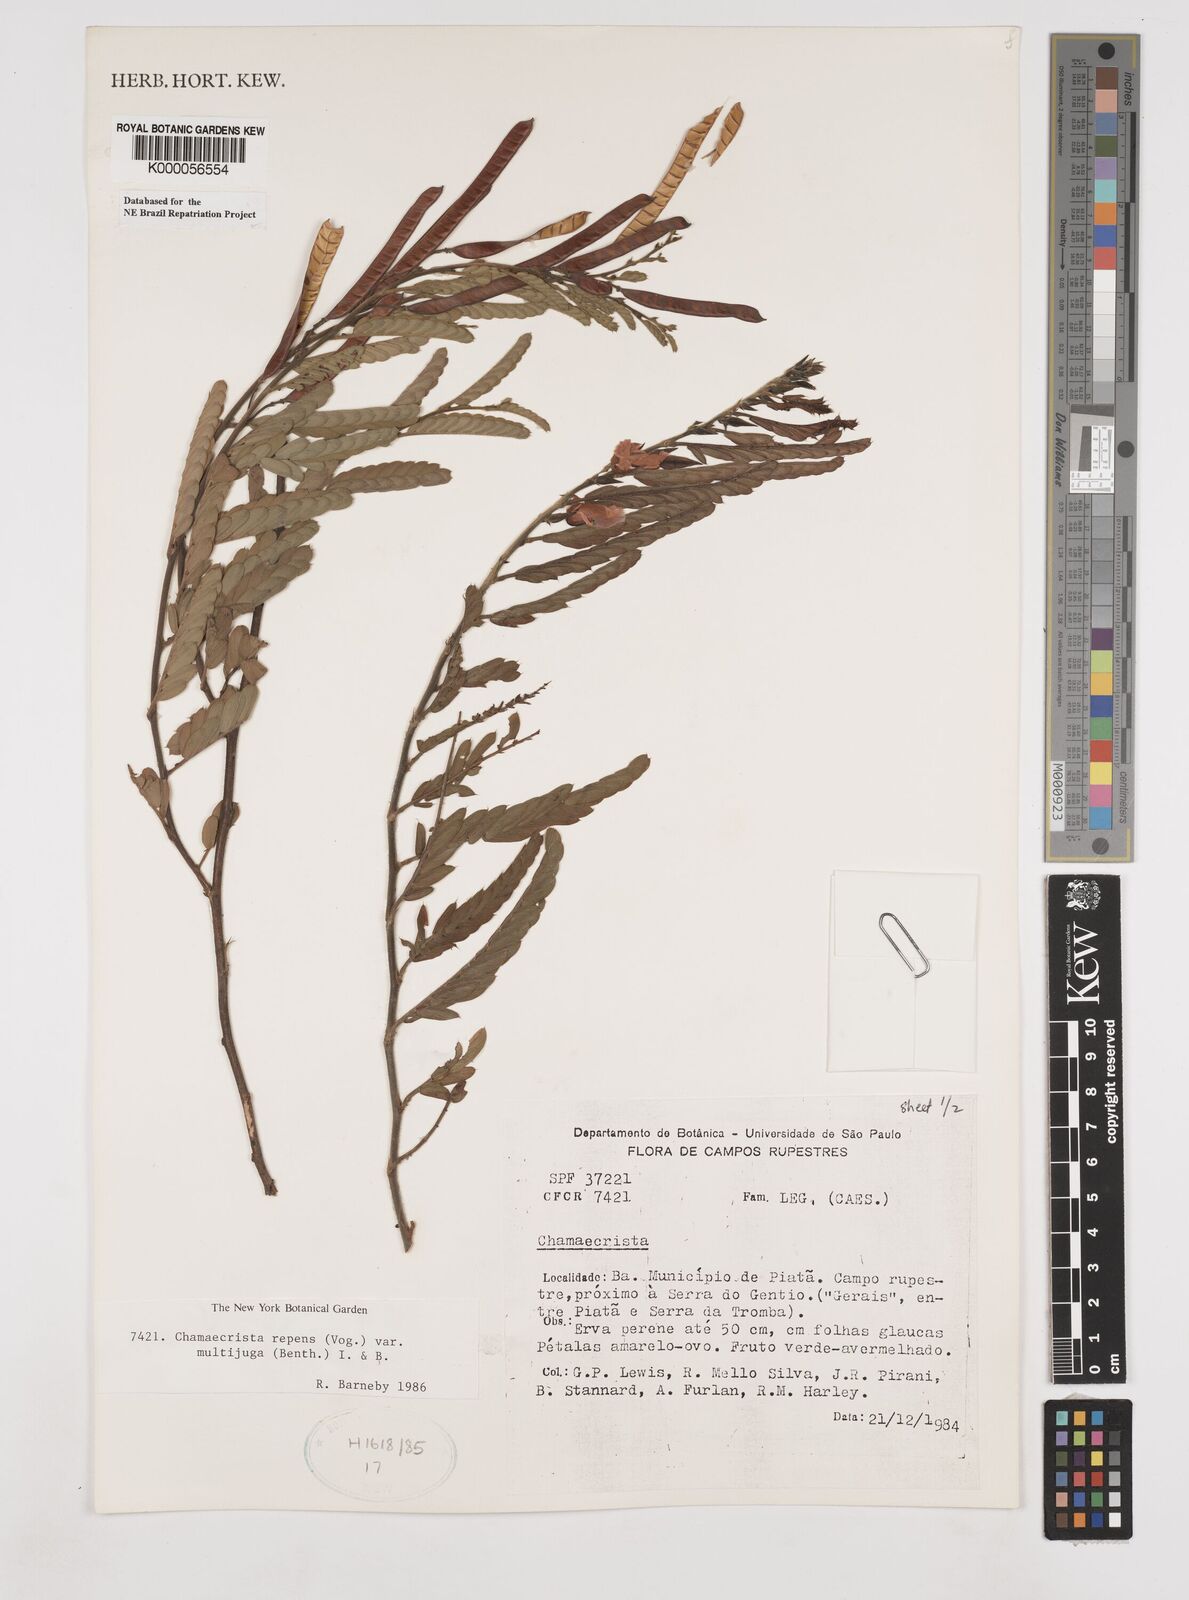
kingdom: Plantae
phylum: Tracheophyta
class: Magnoliopsida
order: Fabales
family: Fabaceae
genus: Chamaecrista
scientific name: Chamaecrista repens
